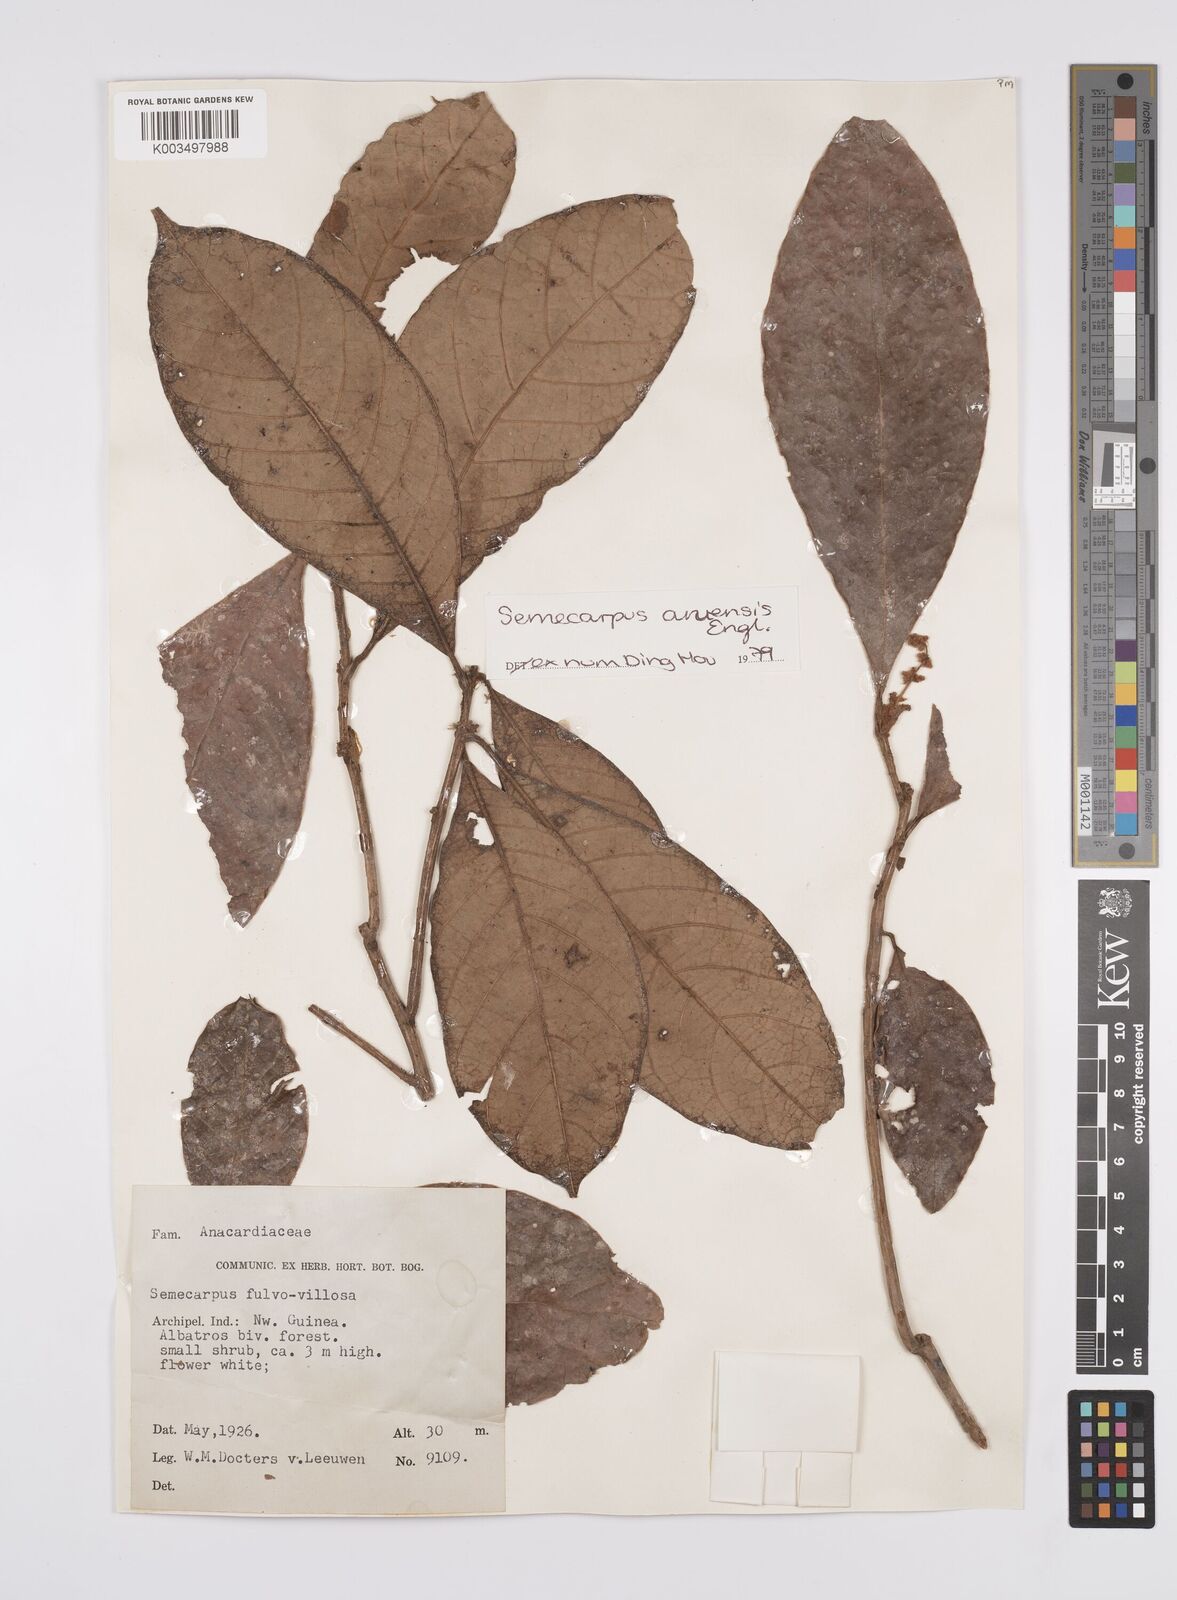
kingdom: Plantae
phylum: Tracheophyta
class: Magnoliopsida
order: Sapindales
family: Anacardiaceae
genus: Semecarpus
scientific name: Semecarpus aruensis
